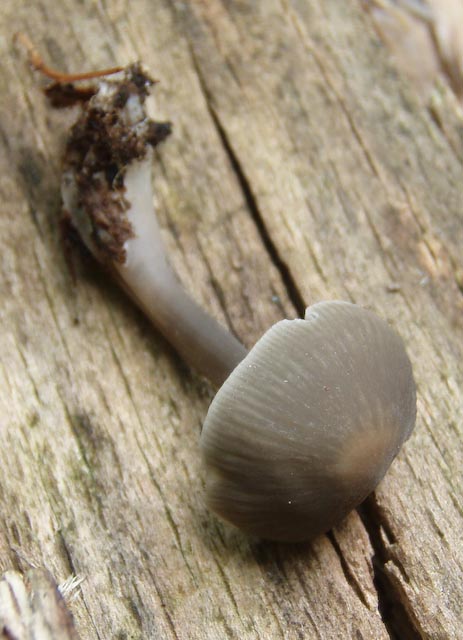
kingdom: Fungi
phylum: Basidiomycota
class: Agaricomycetes
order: Agaricales
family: Mycenaceae
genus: Mycena
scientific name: Mycena galericulata
